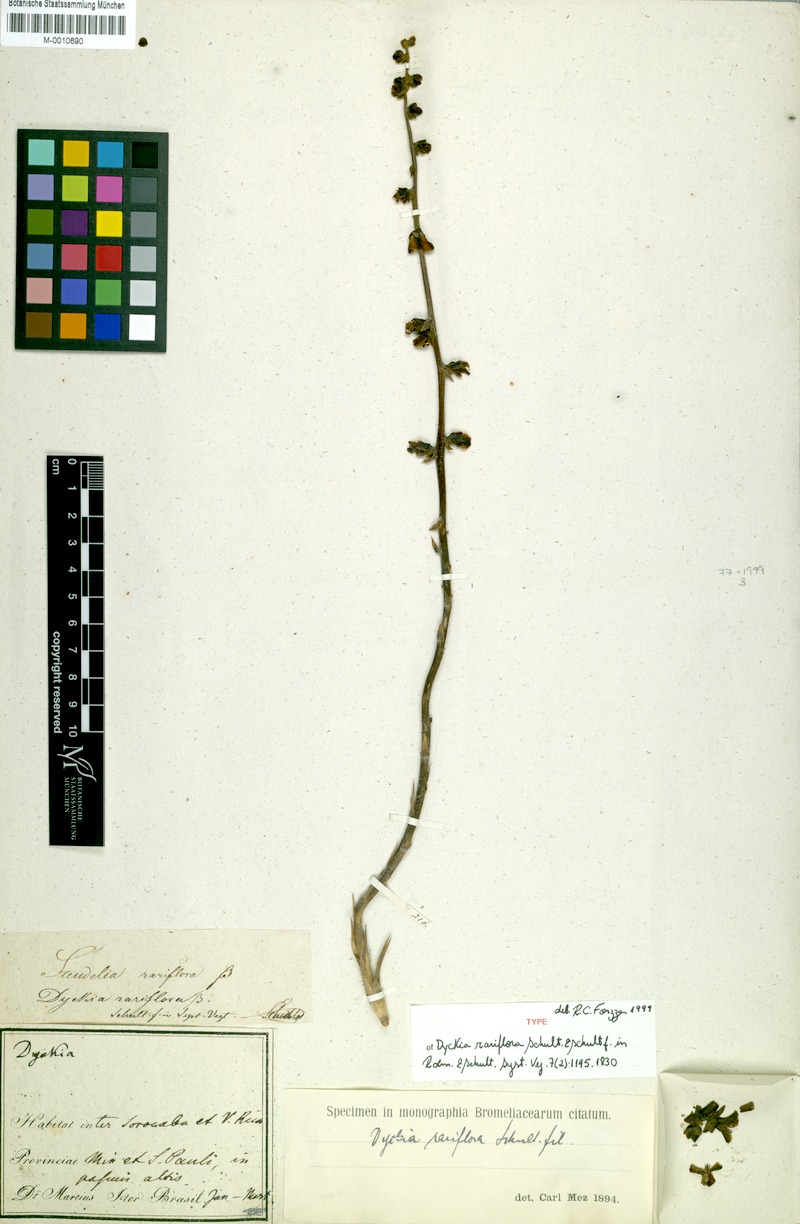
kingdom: Plantae
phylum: Tracheophyta
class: Liliopsida
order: Poales
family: Bromeliaceae
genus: Dyckia
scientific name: Dyckia rariflora
